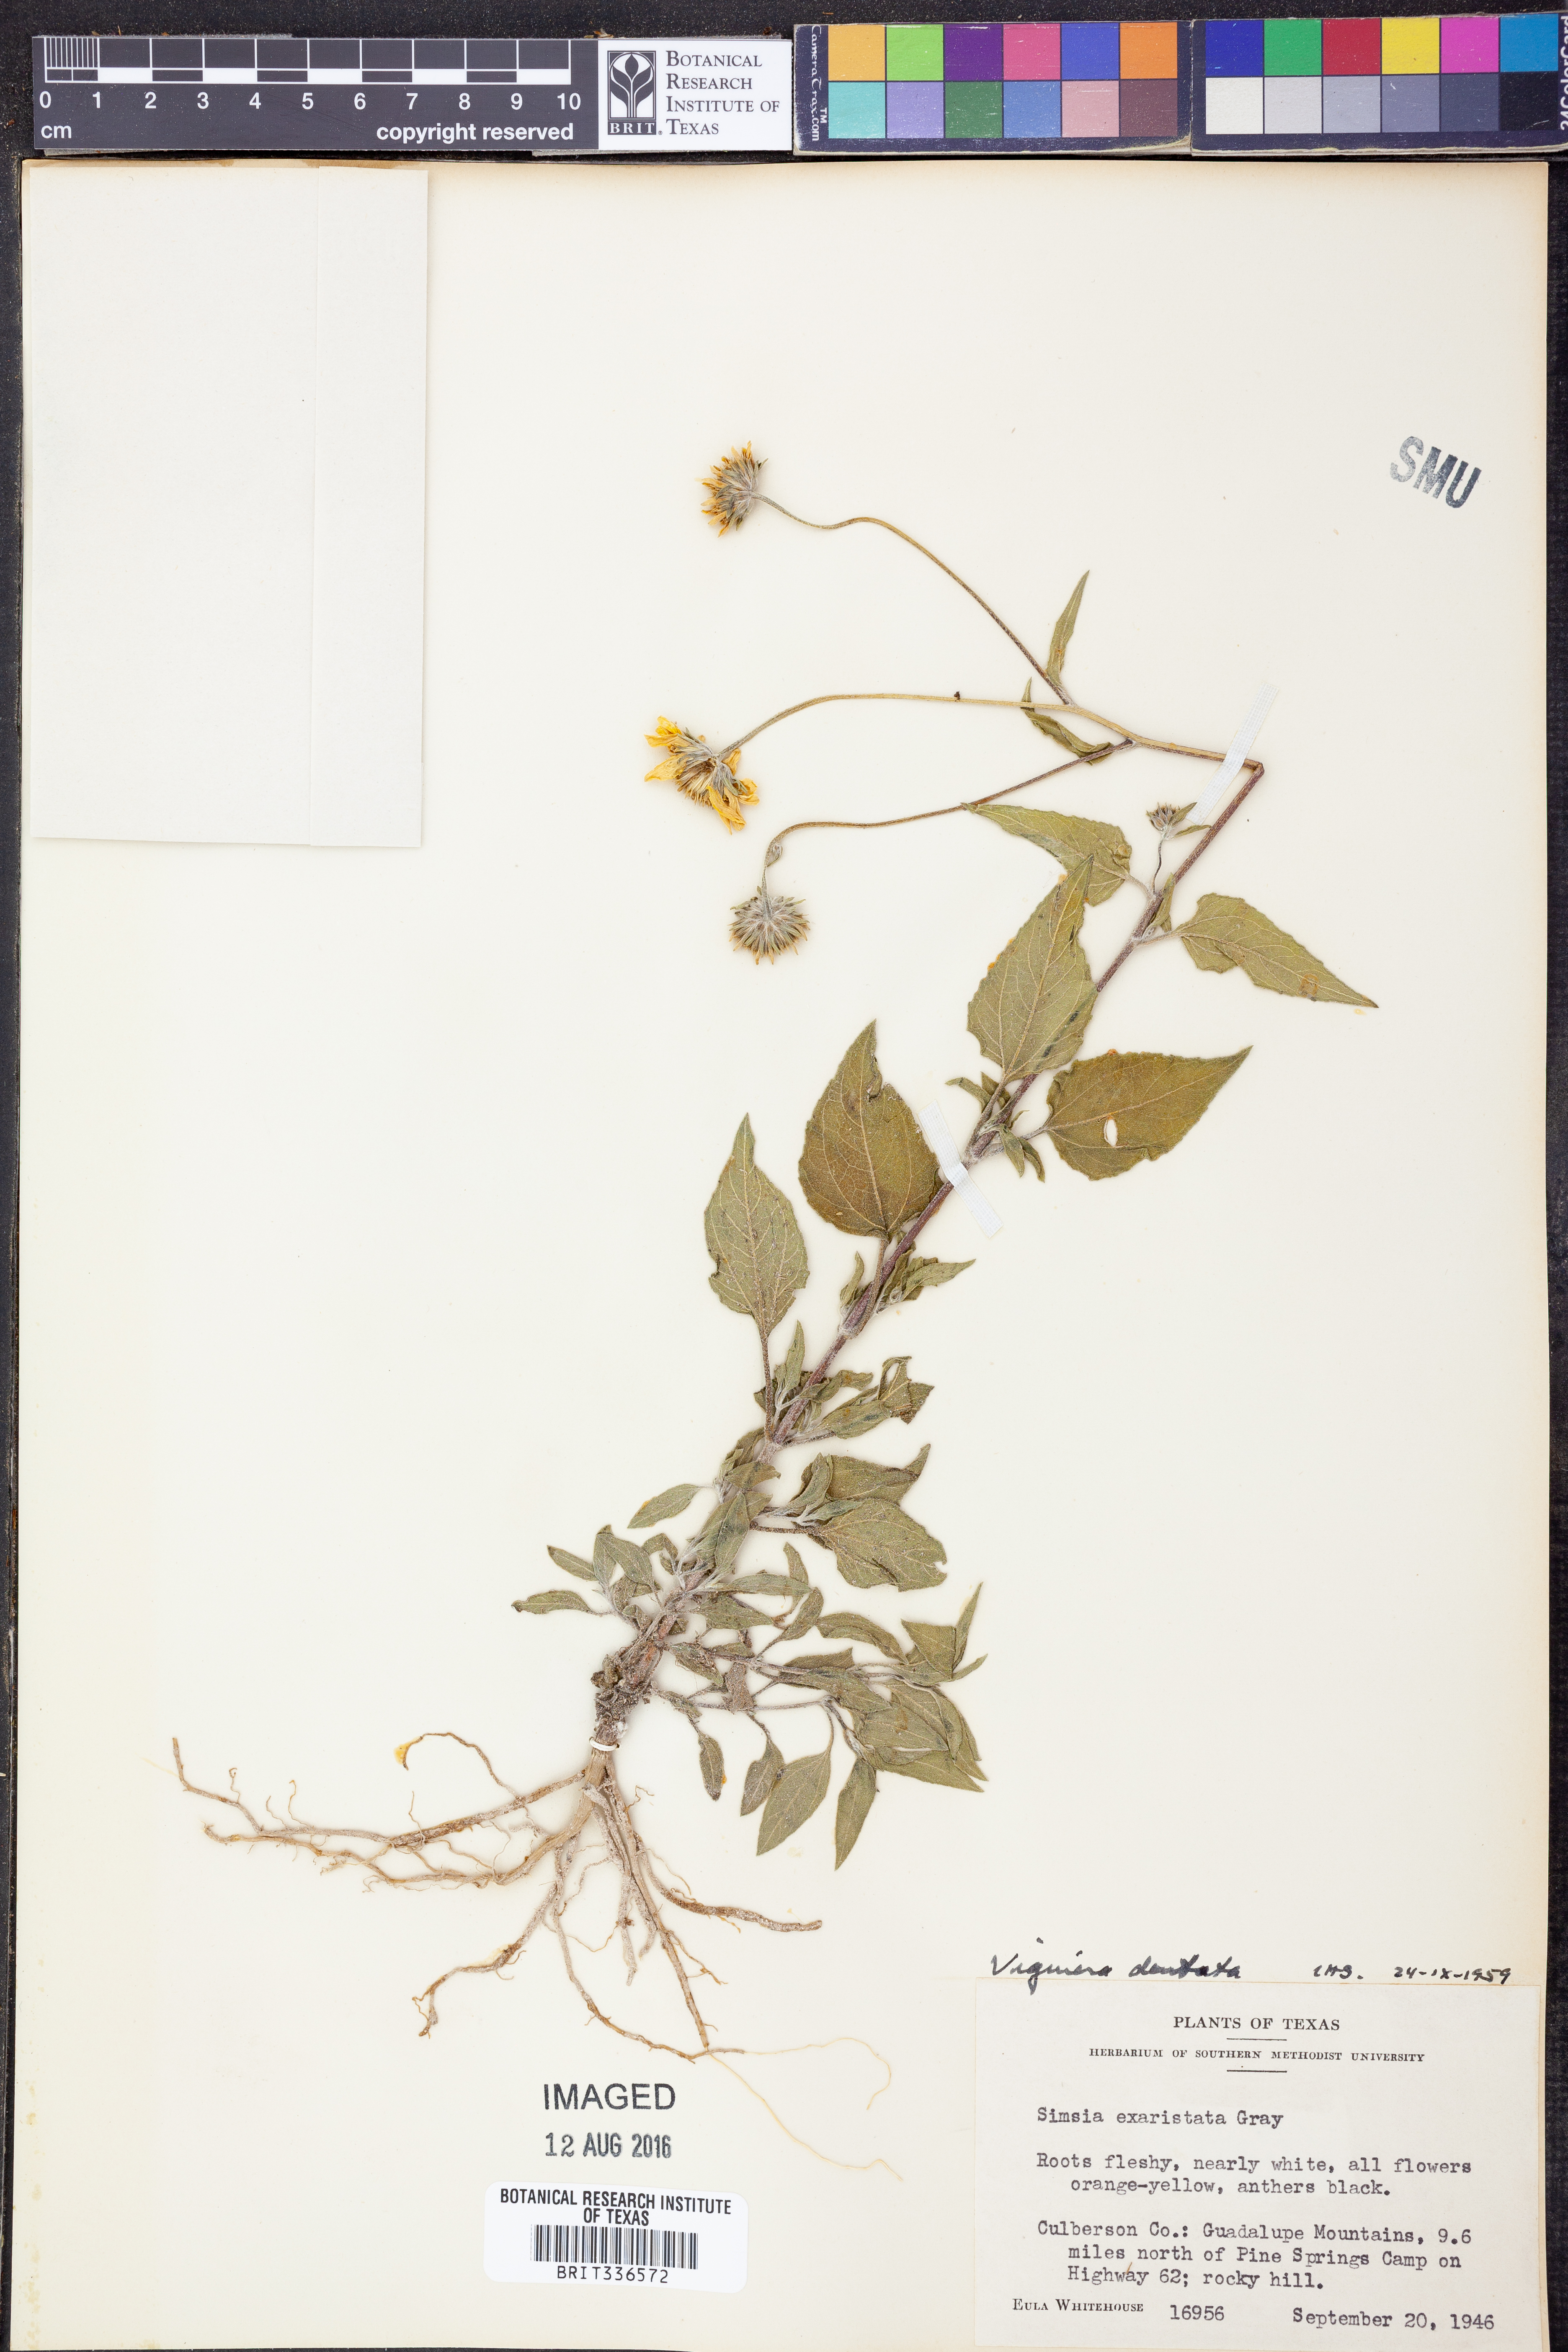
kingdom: Plantae
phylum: Tracheophyta
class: Magnoliopsida
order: Asterales
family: Asteraceae
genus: Viguiera
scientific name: Viguiera dentata
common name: Toothleaf
